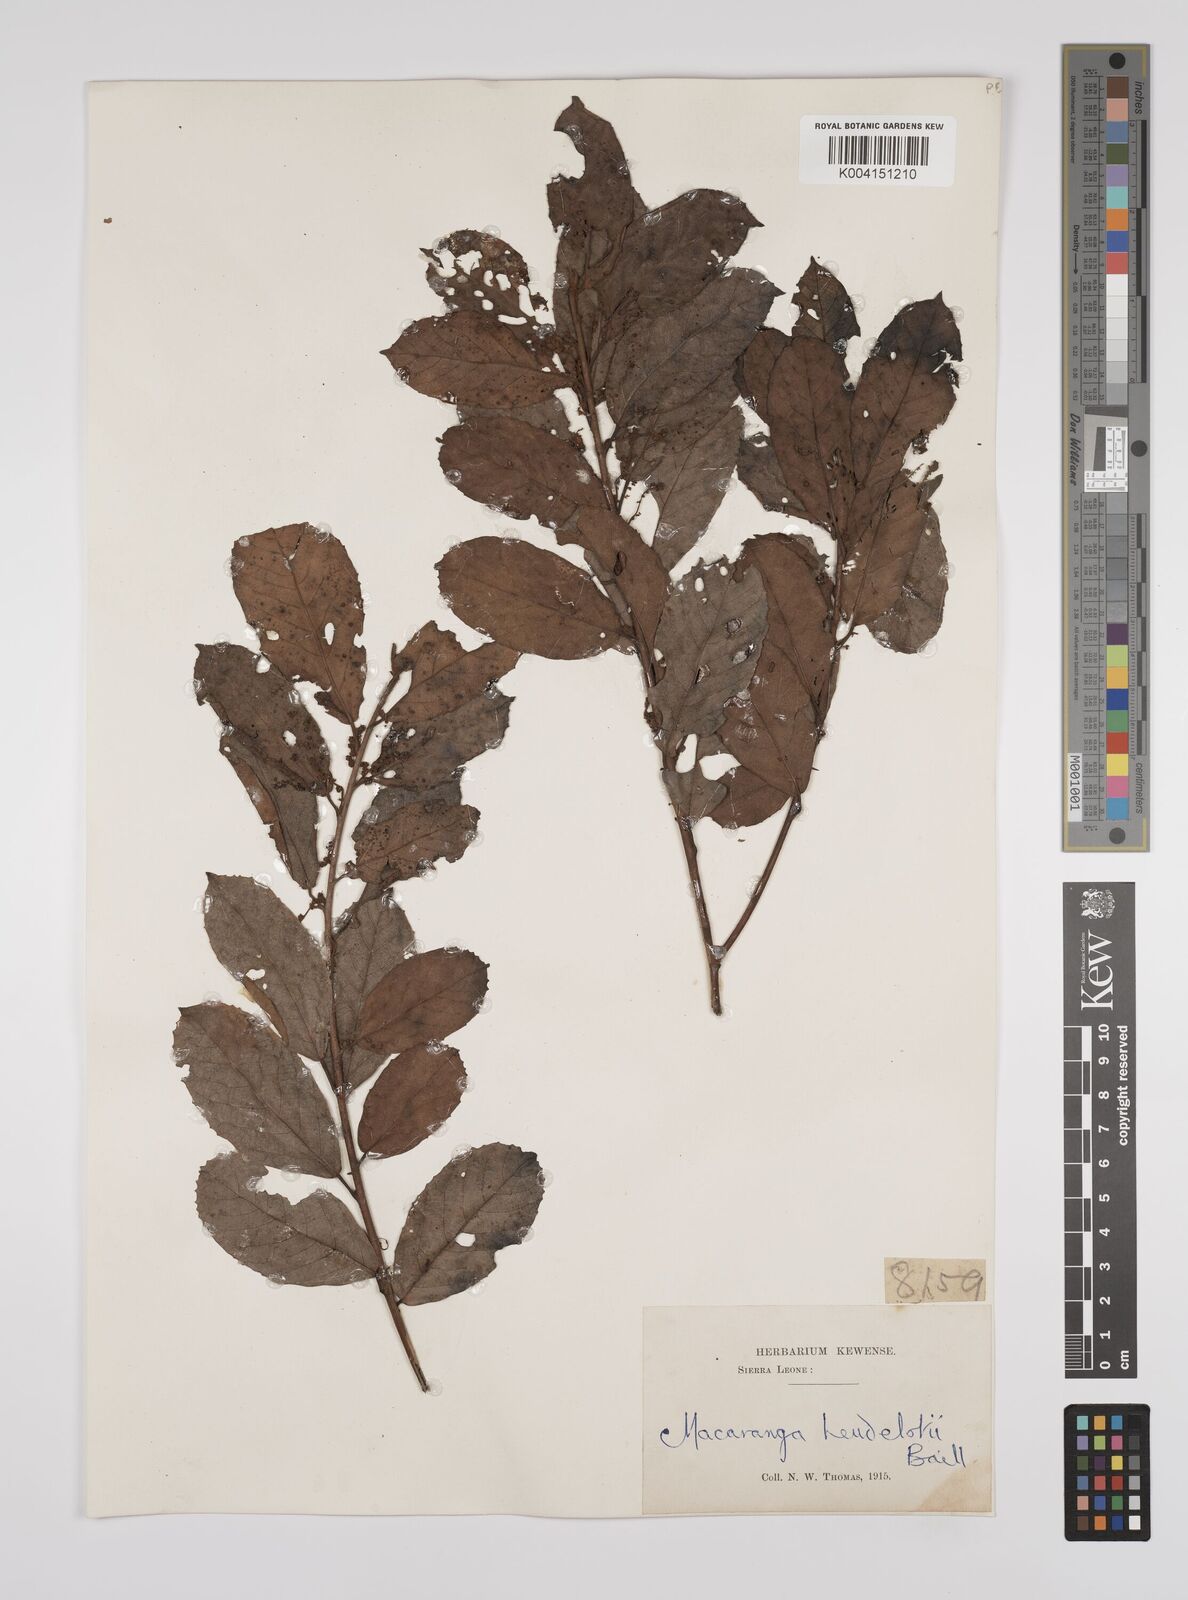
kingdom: Plantae
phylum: Tracheophyta
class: Magnoliopsida
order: Malpighiales
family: Euphorbiaceae
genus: Macaranga
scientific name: Macaranga heudelotii
